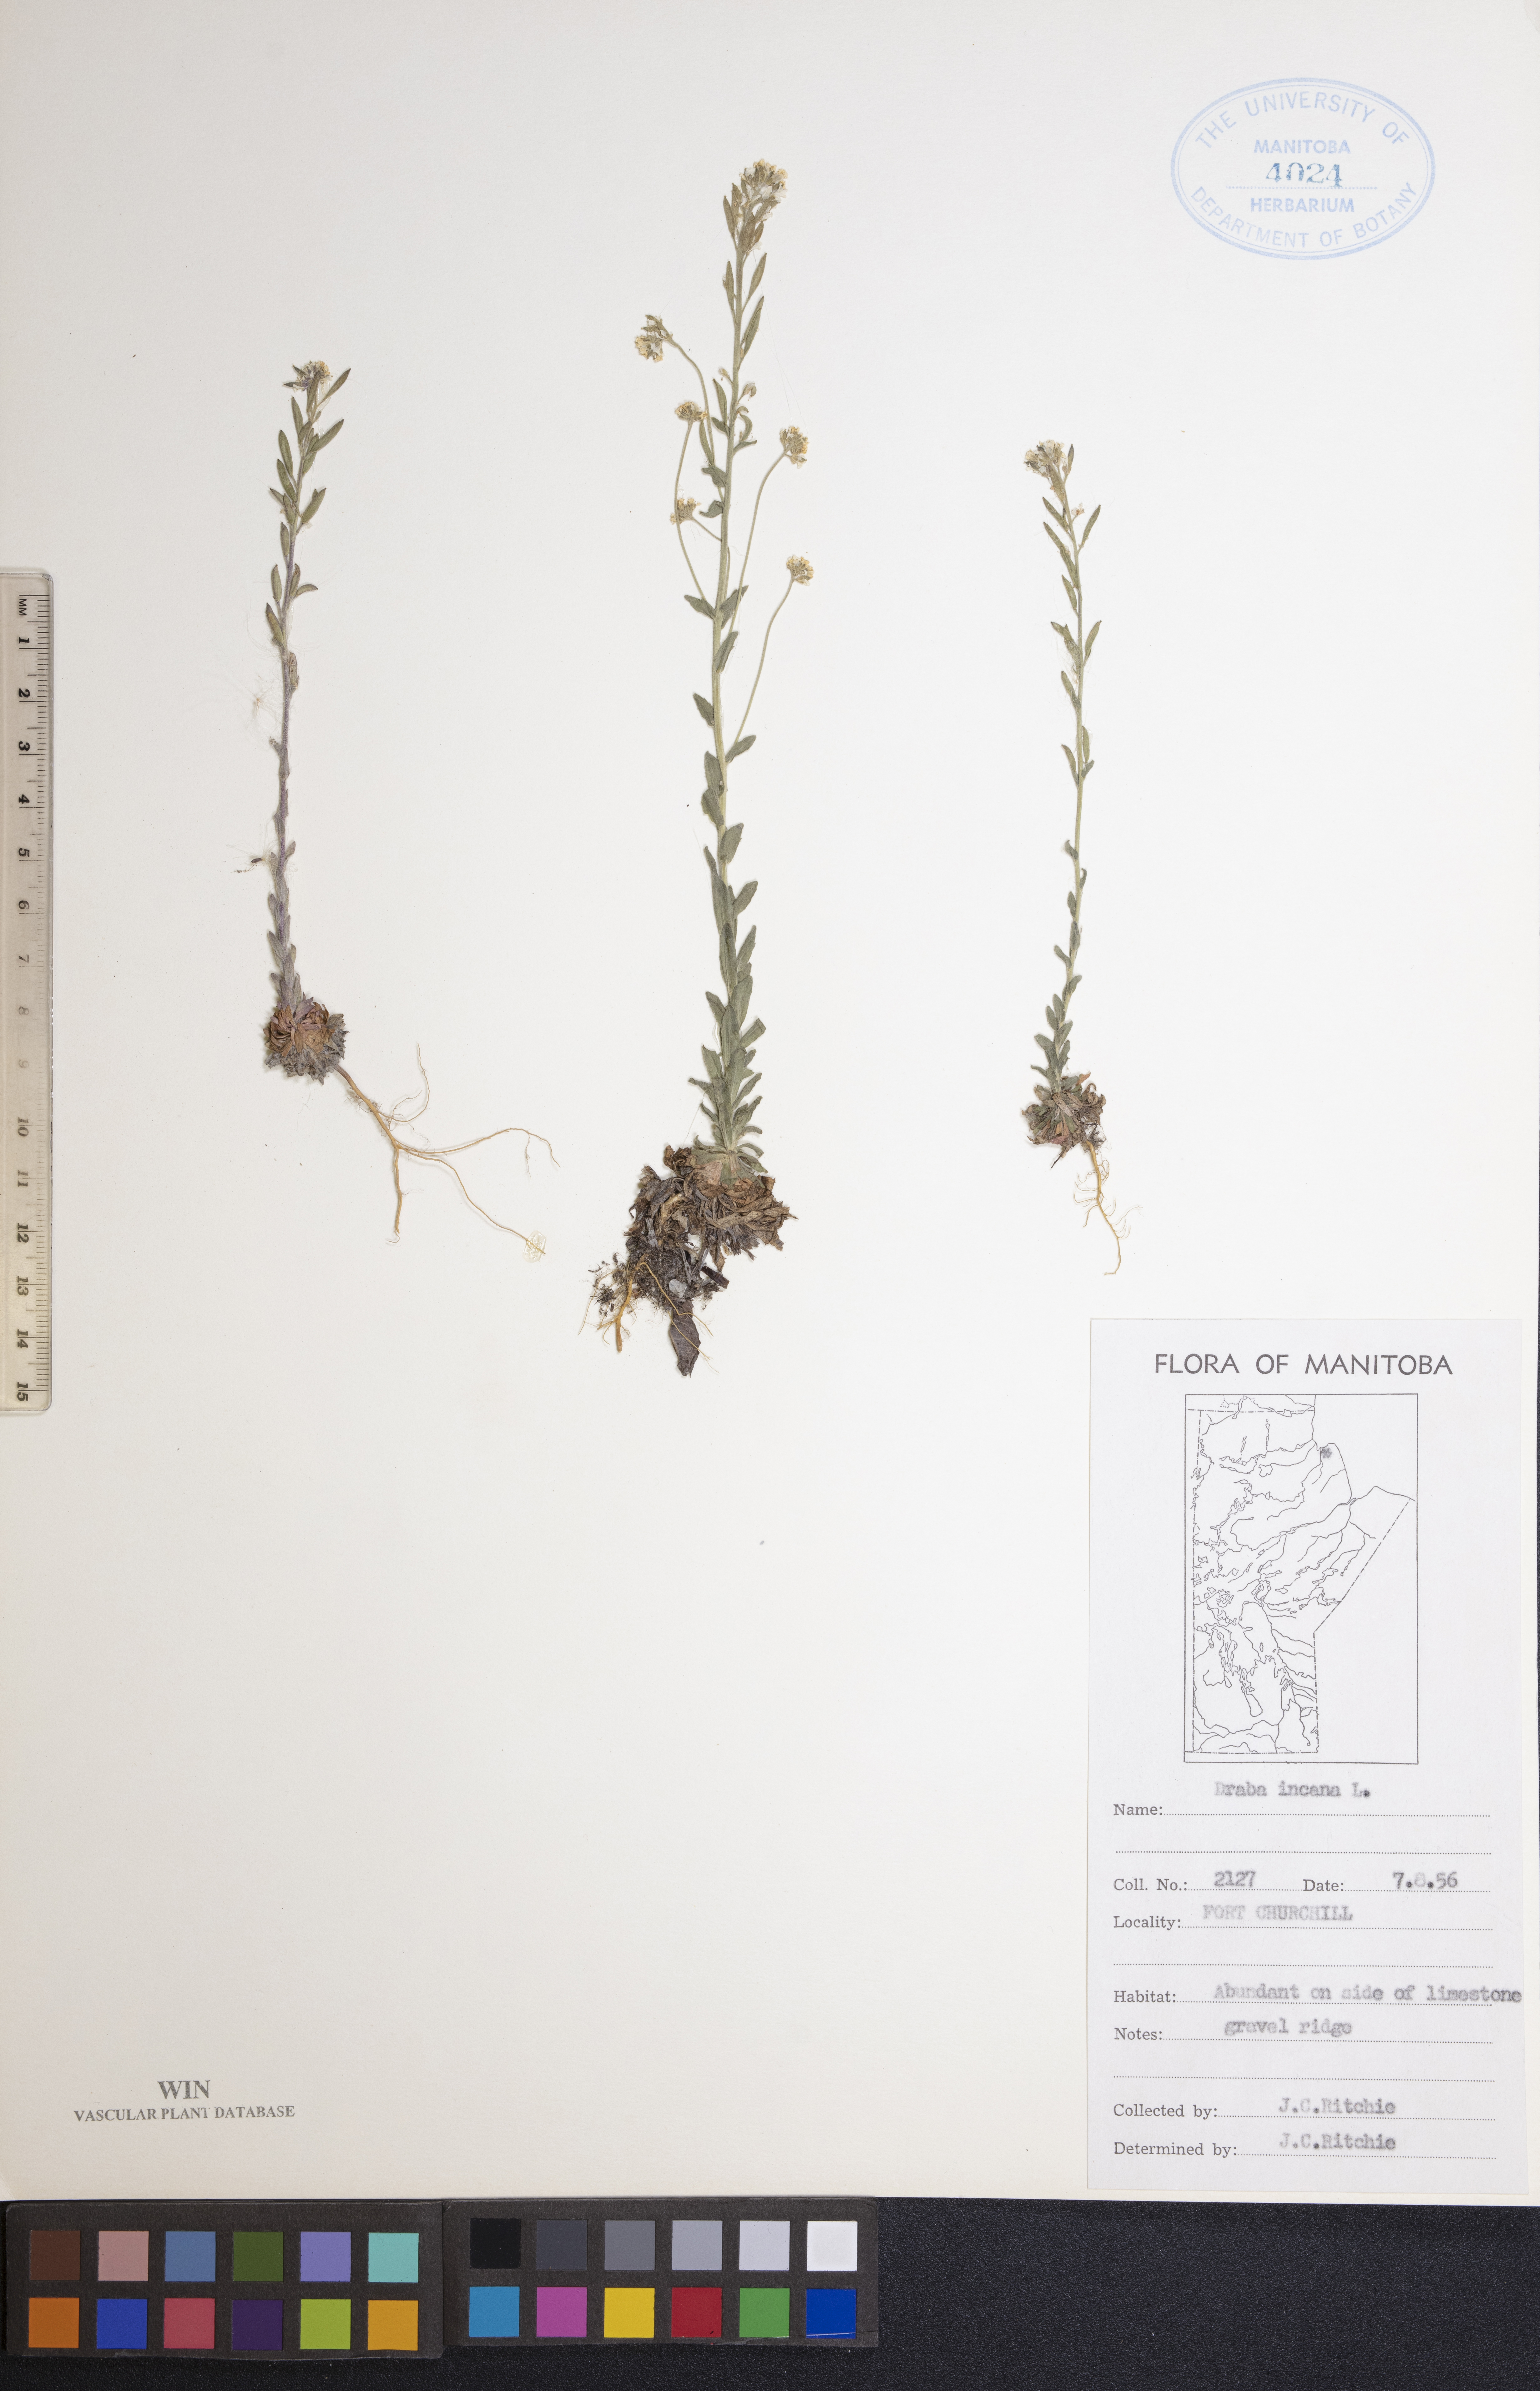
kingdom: Plantae
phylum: Tracheophyta
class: Magnoliopsida
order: Brassicales
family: Brassicaceae
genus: Draba
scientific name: Draba incana
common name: Hoary whitlow-grass
